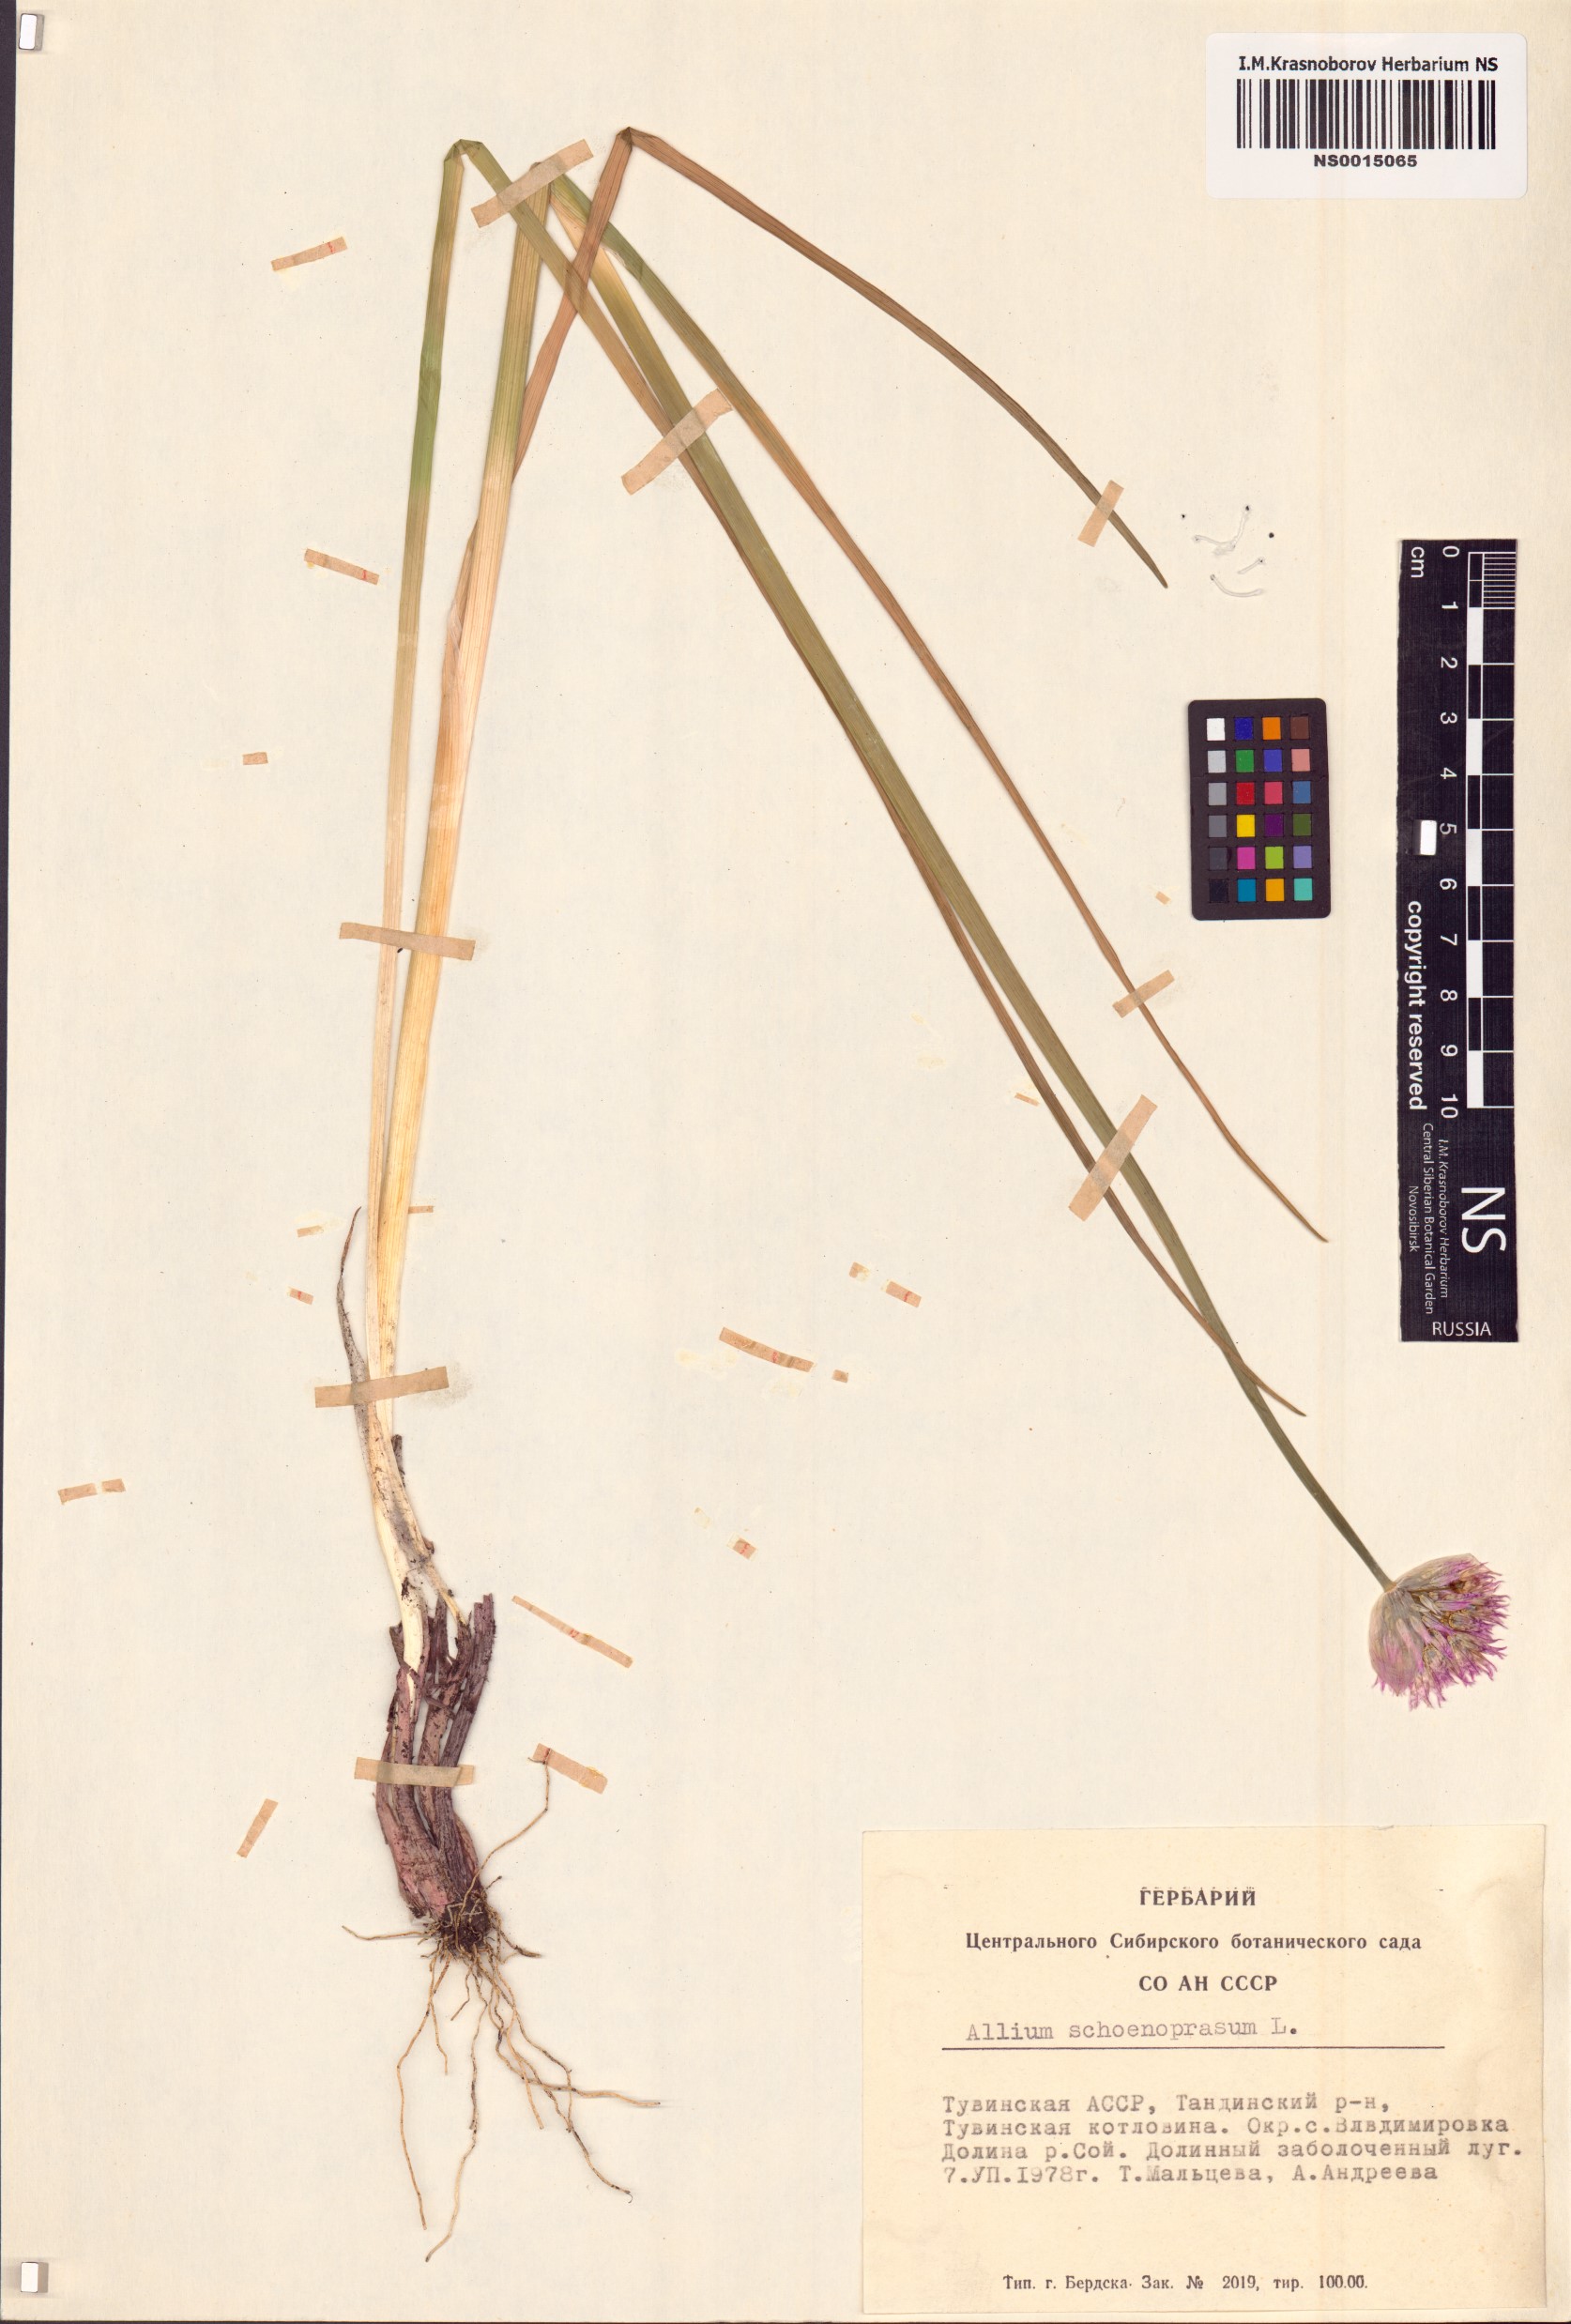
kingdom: Plantae
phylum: Tracheophyta
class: Liliopsida
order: Asparagales
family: Amaryllidaceae
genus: Allium
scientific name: Allium schoenoprasum
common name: Chives
